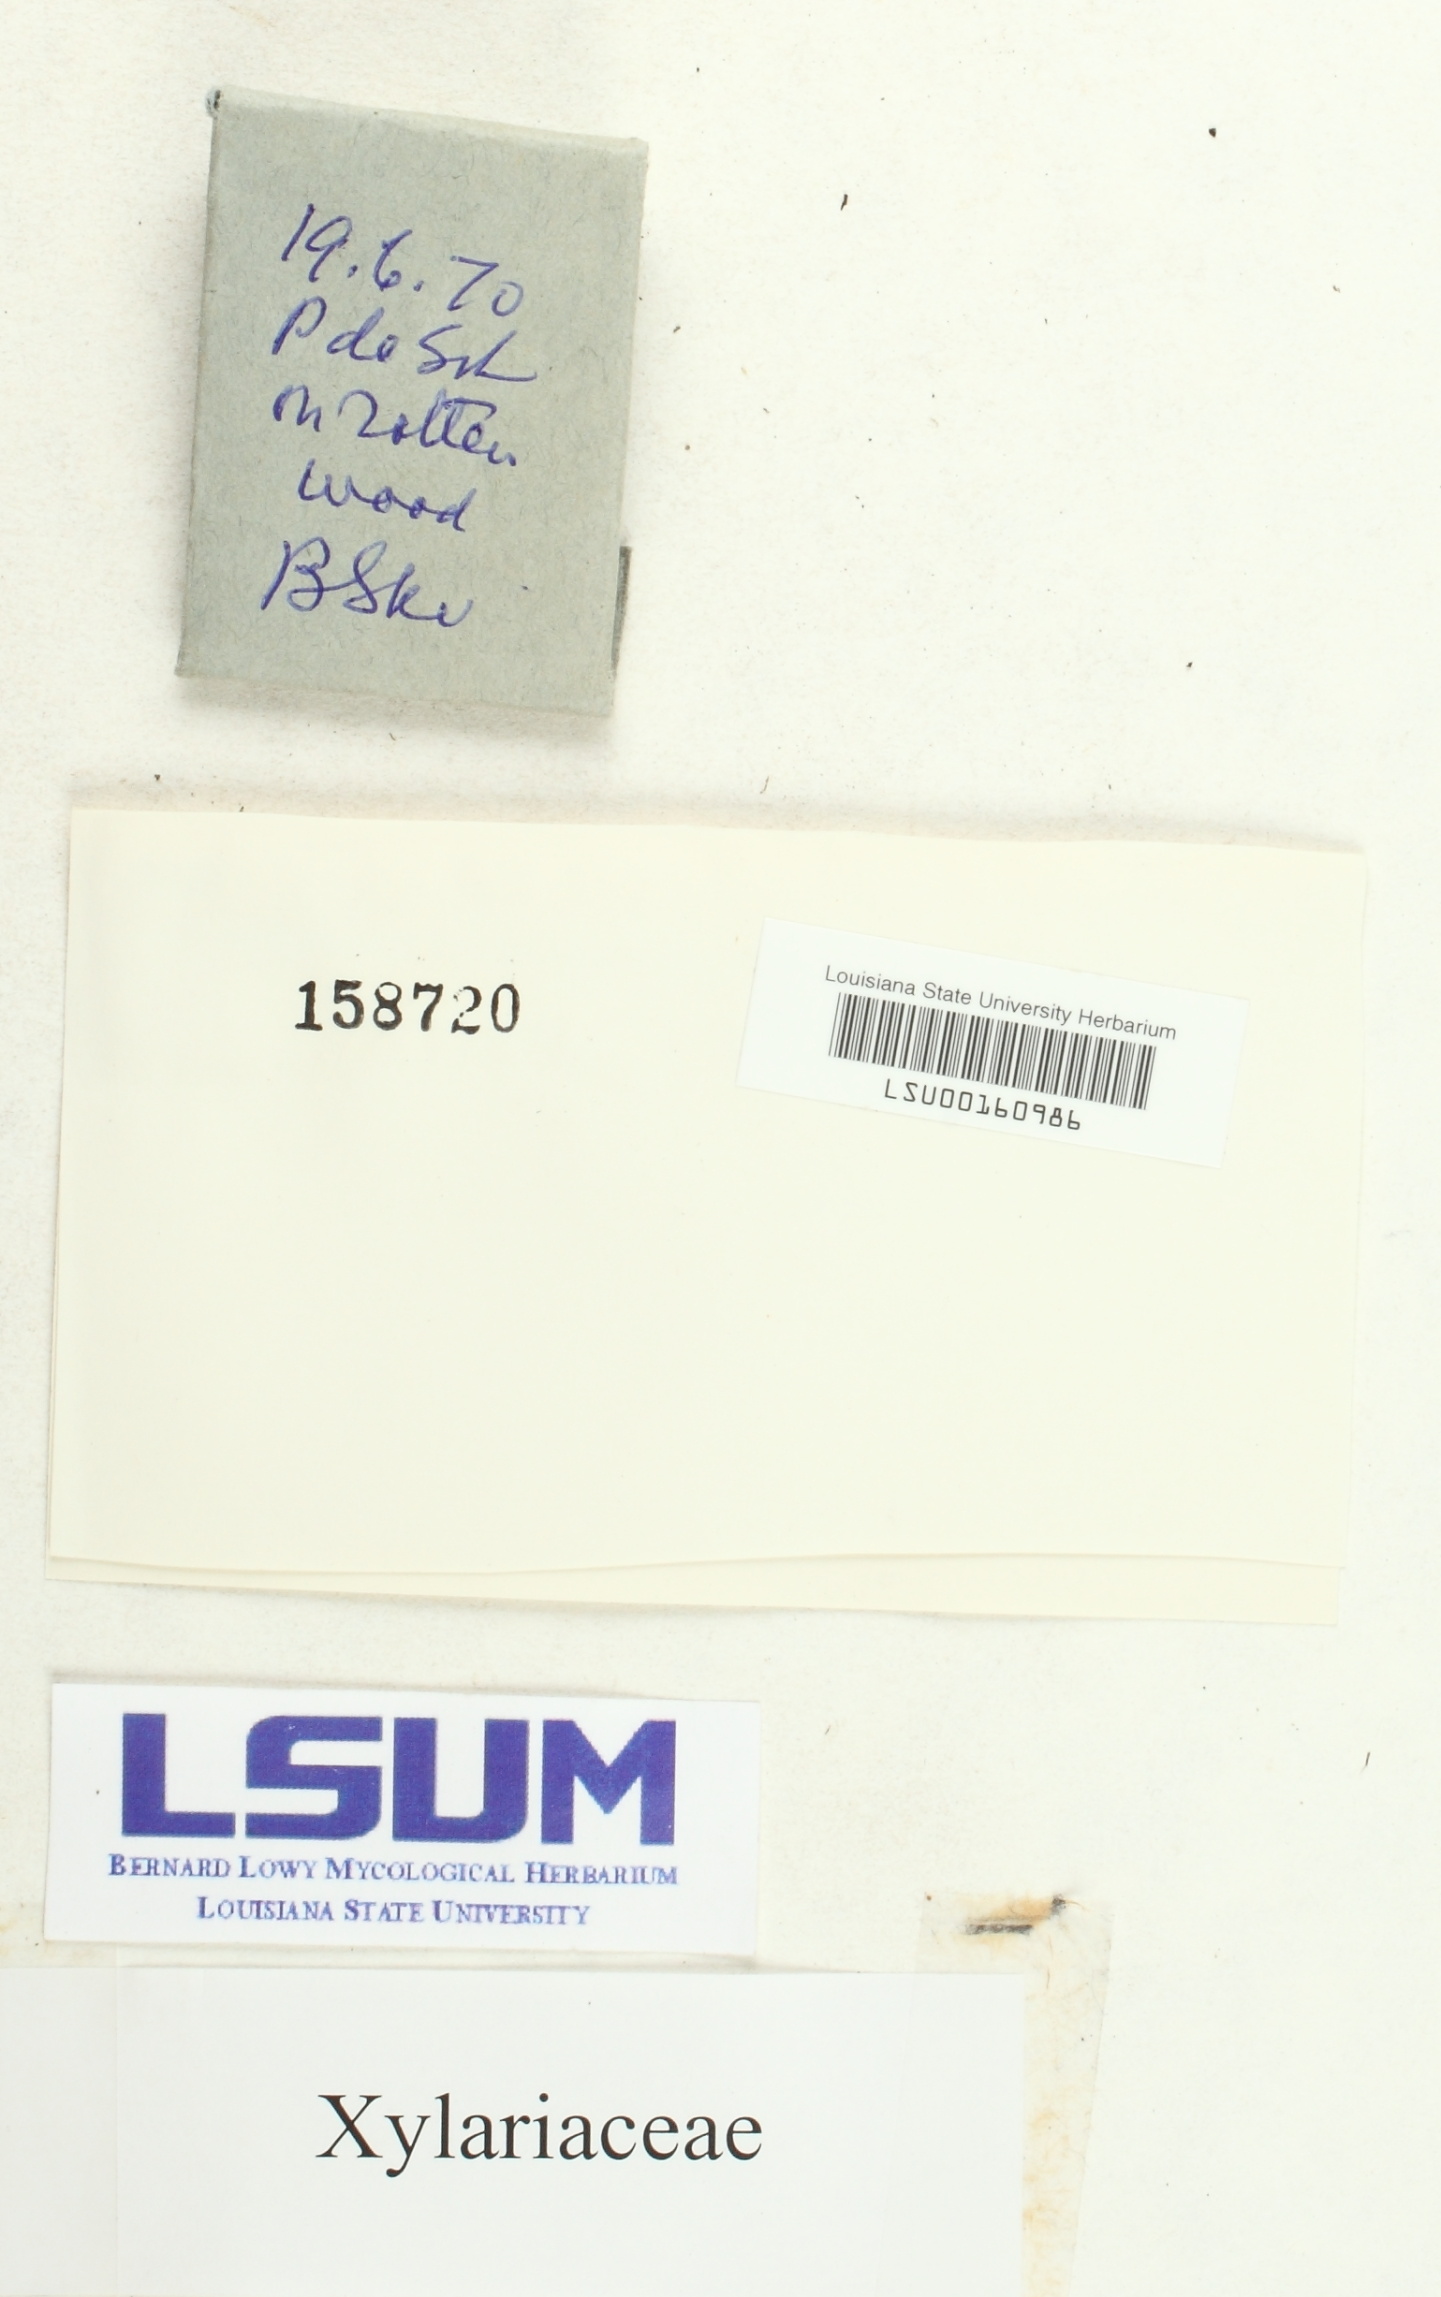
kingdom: Fungi
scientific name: Fungi
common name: Fungi
